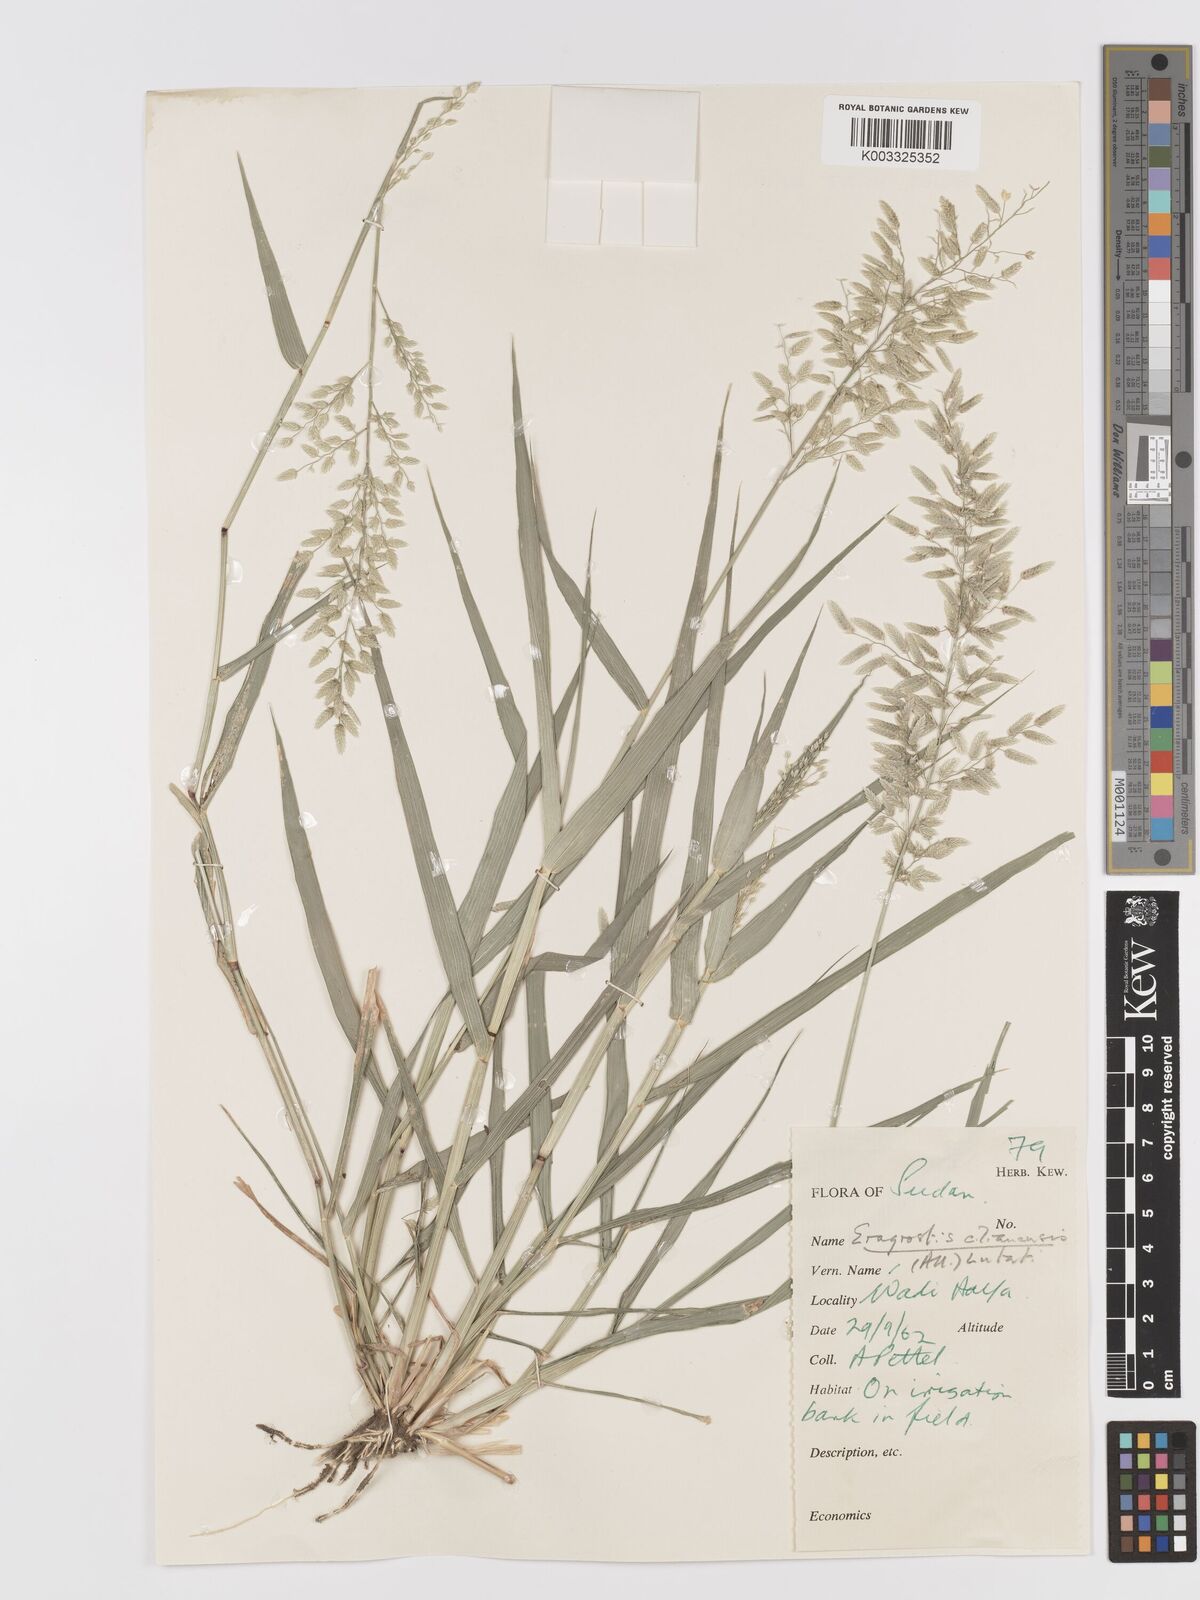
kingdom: Plantae
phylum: Tracheophyta
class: Liliopsida
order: Poales
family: Poaceae
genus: Eragrostis
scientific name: Eragrostis cilianensis
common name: Stinkgrass
